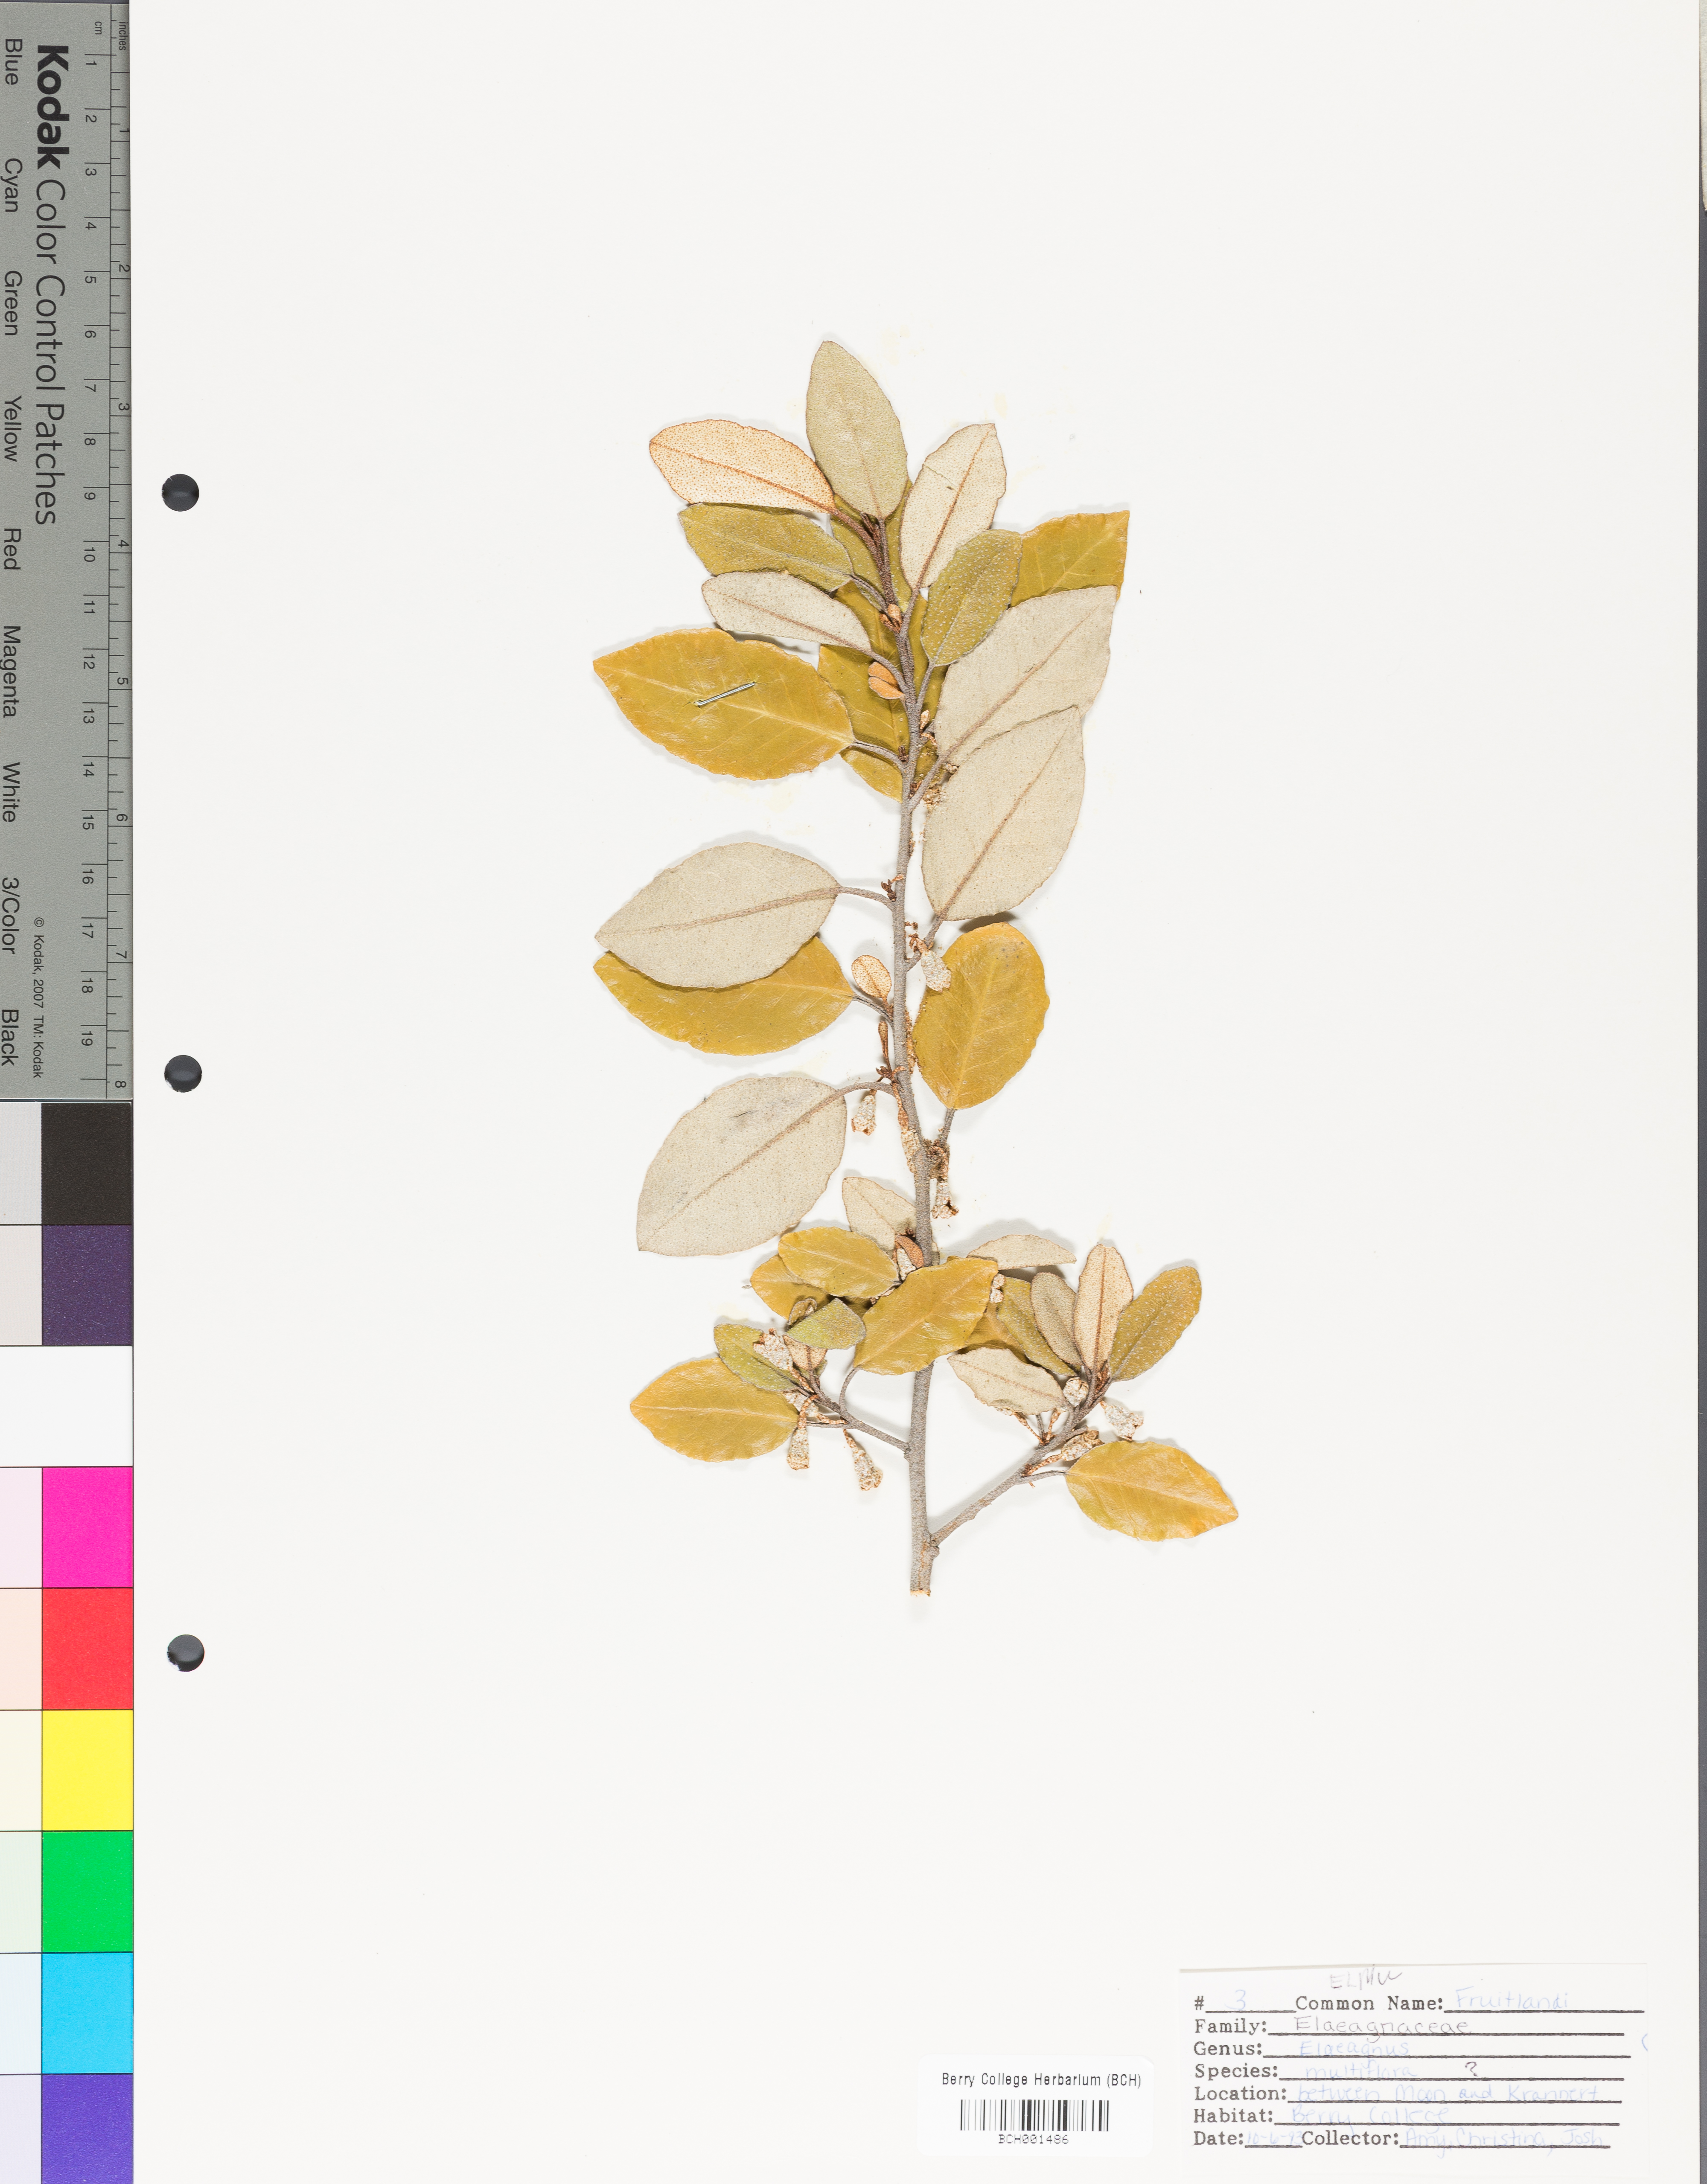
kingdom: Plantae
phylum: Tracheophyta
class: Magnoliopsida
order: Rosales
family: Elaeagnaceae
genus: Elaeagnus
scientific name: Elaeagnus multiflora
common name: Cherry elaeagnus
